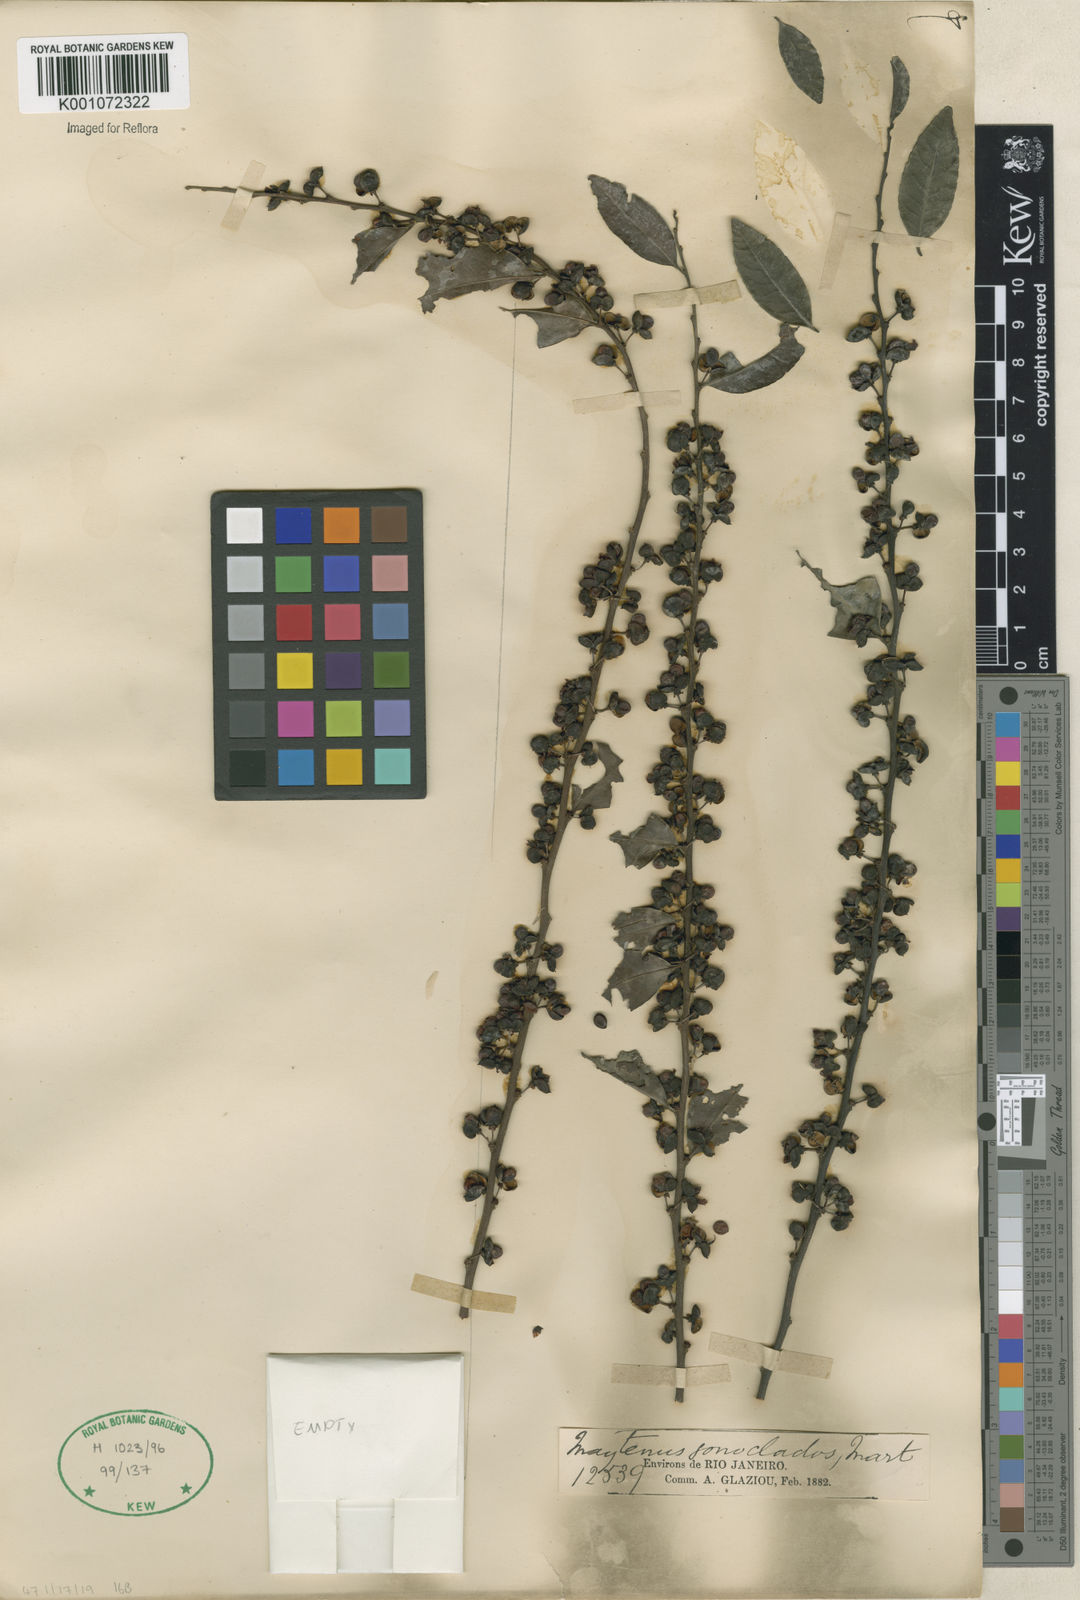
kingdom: Plantae
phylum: Tracheophyta
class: Magnoliopsida
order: Celastrales
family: Celastraceae
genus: Maytenus
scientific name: Maytenus
